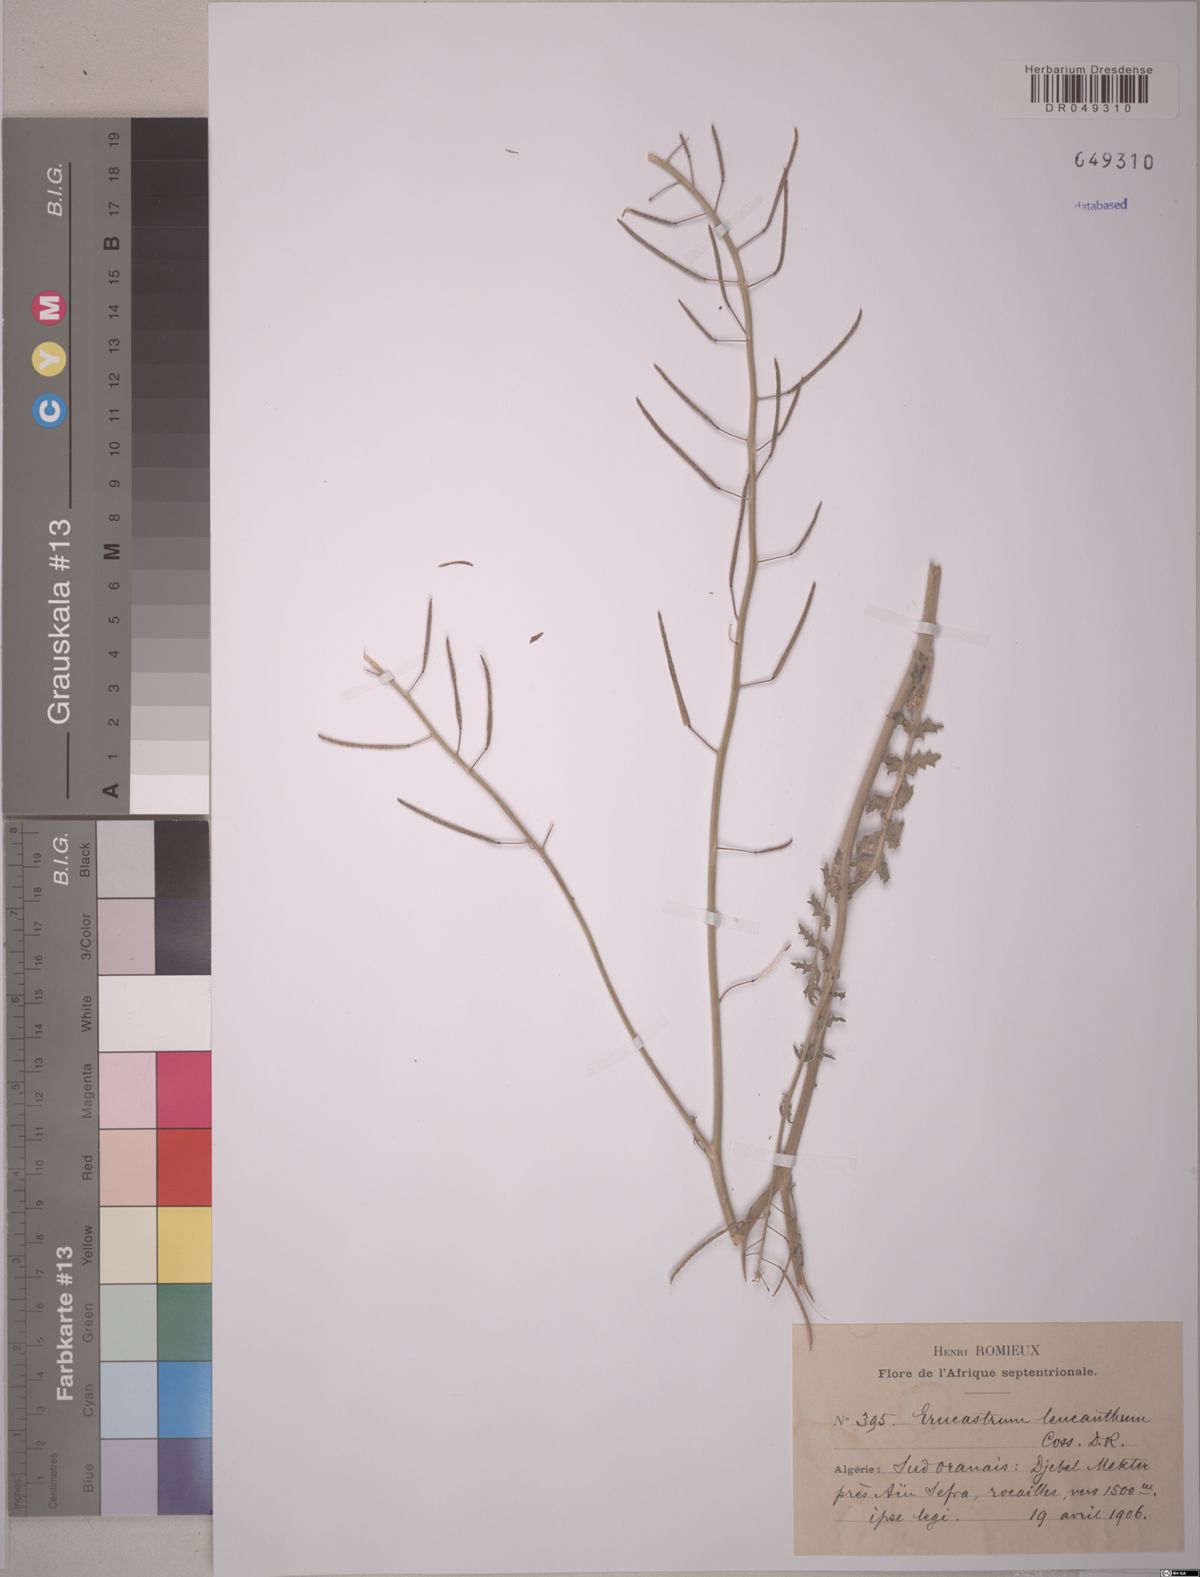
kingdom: Plantae
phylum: Tracheophyta
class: Magnoliopsida
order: Brassicales
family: Brassicaceae
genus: Erucastrum
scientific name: Erucastrum leucanthum
